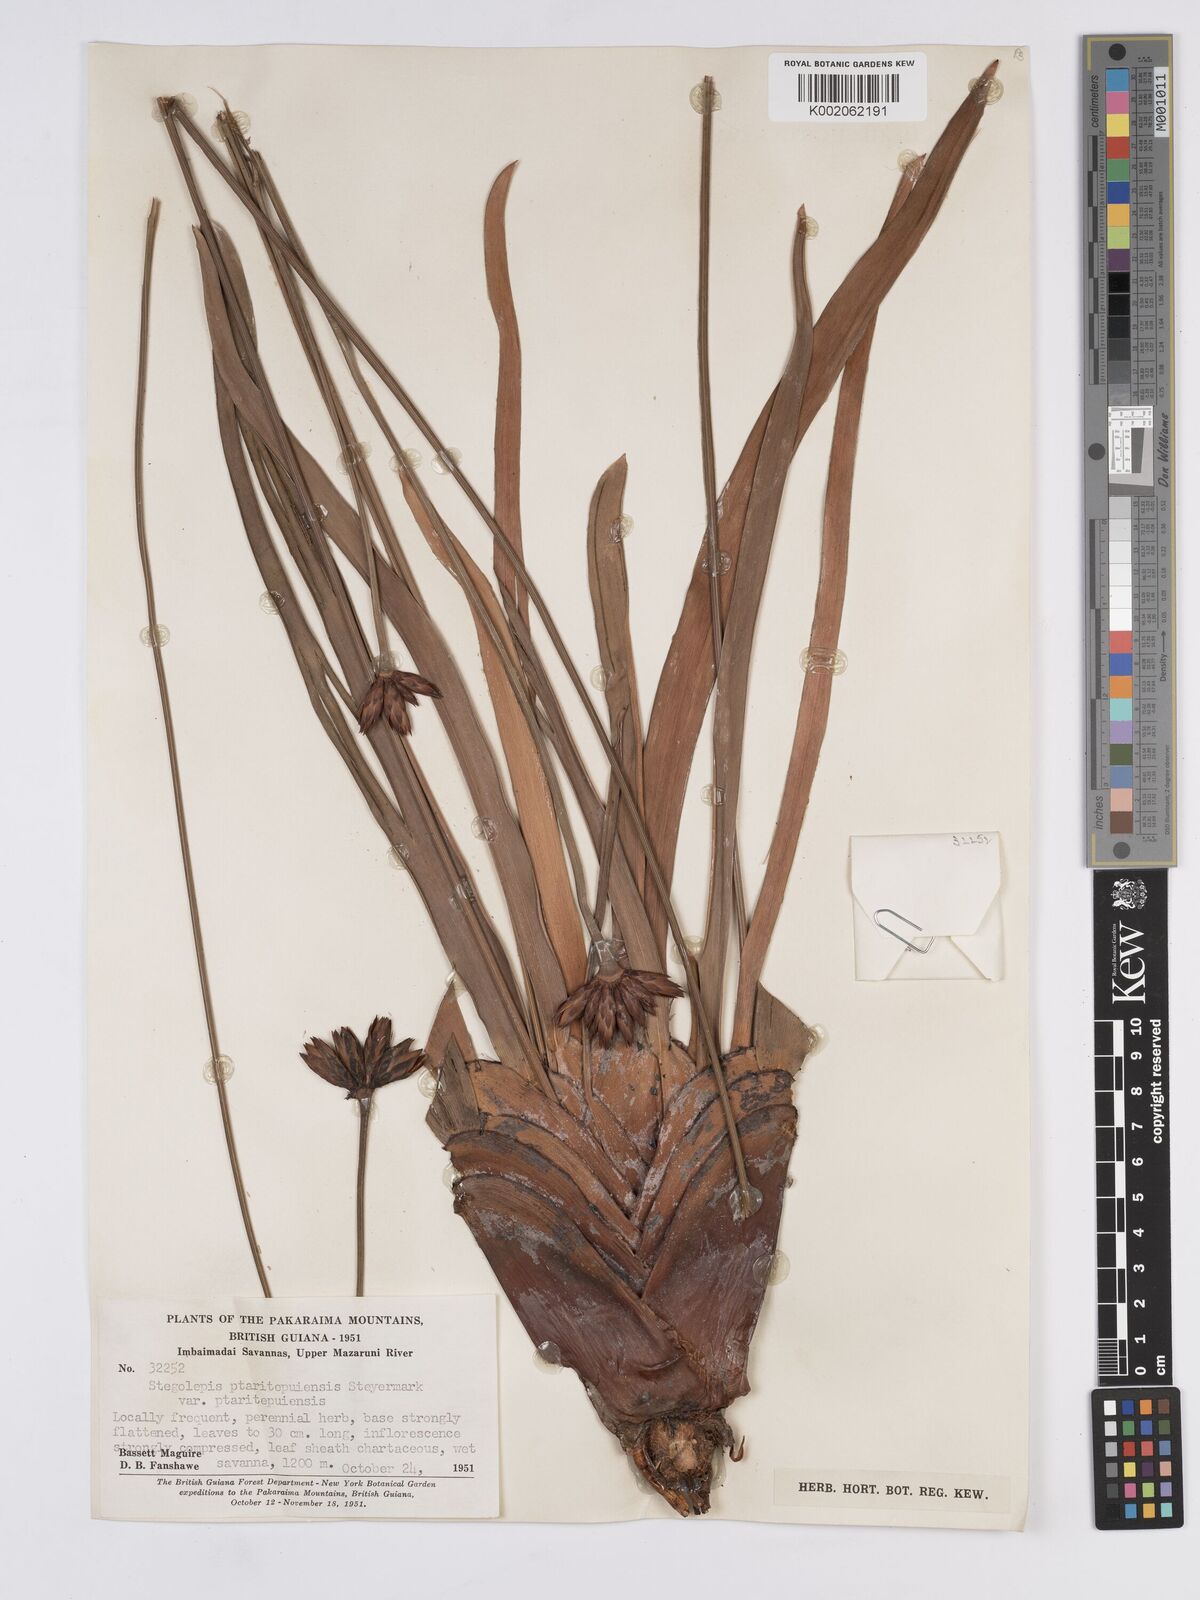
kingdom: Plantae
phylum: Tracheophyta
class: Liliopsida
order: Poales
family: Rapateaceae
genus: Stegolepis
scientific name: Stegolepis ptaritepuiensis
